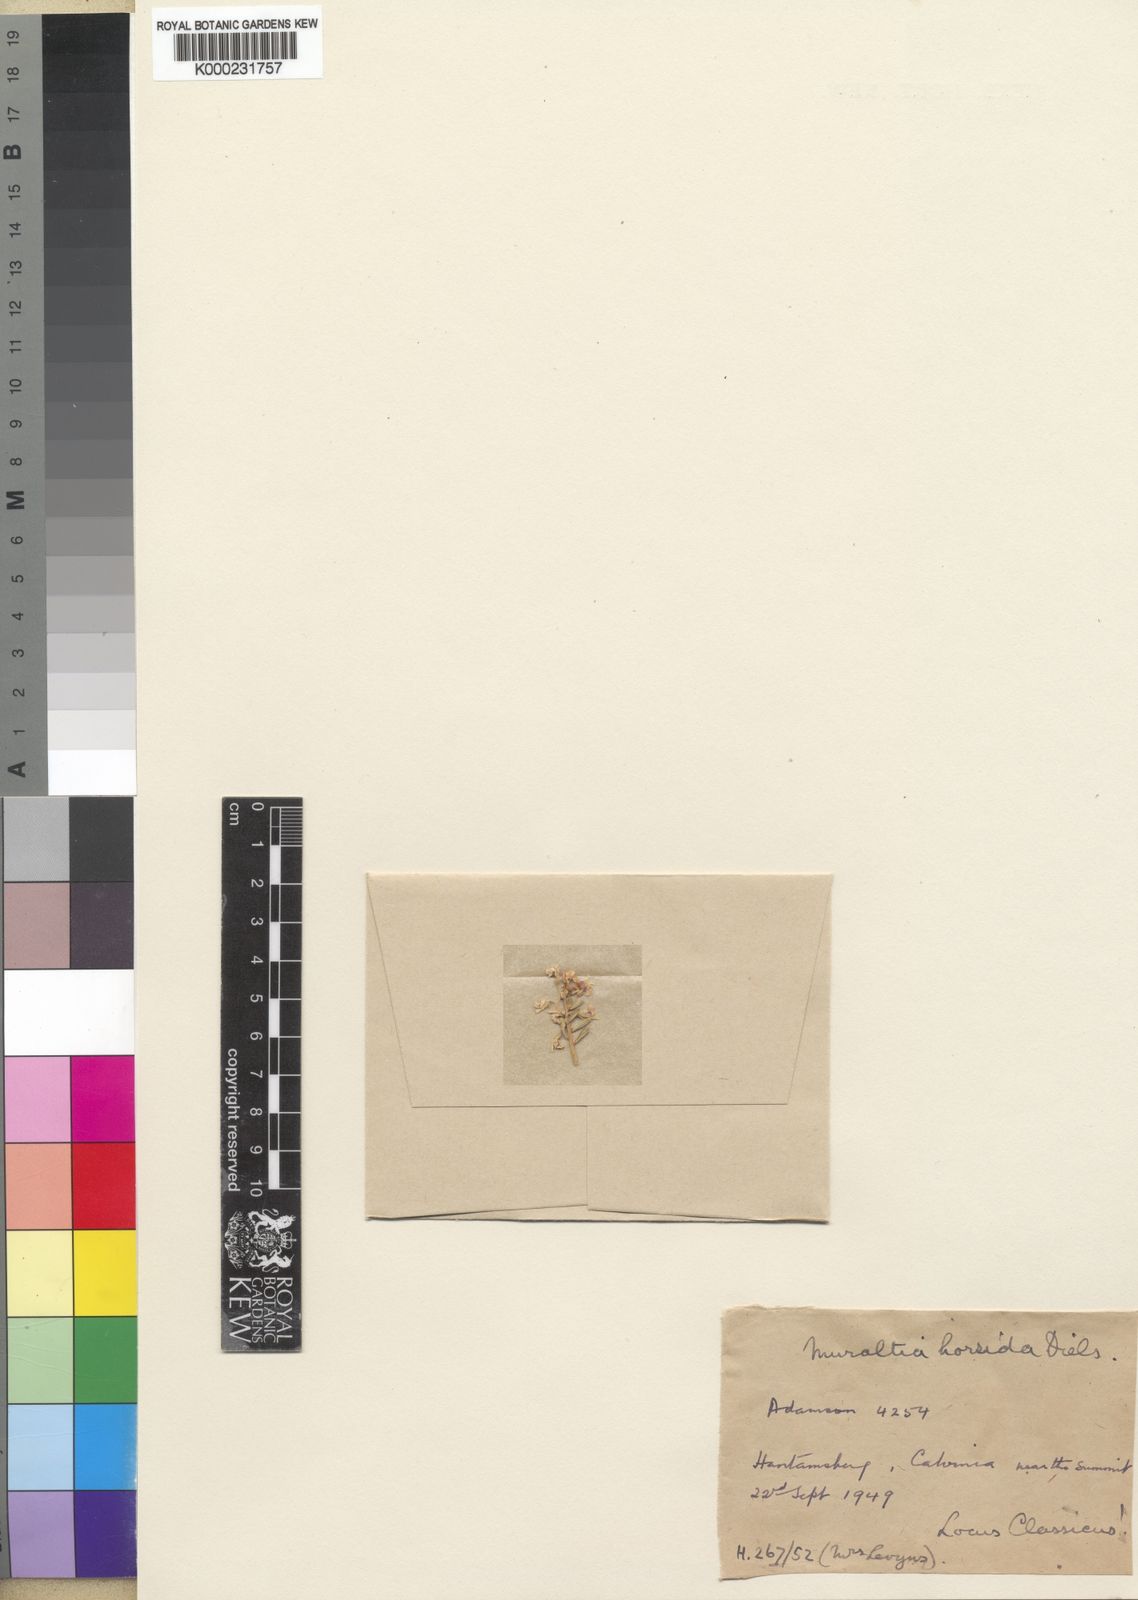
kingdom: Plantae
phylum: Tracheophyta
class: Magnoliopsida
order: Fabales
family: Polygalaceae
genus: Muraltia
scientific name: Muraltia scoparia
